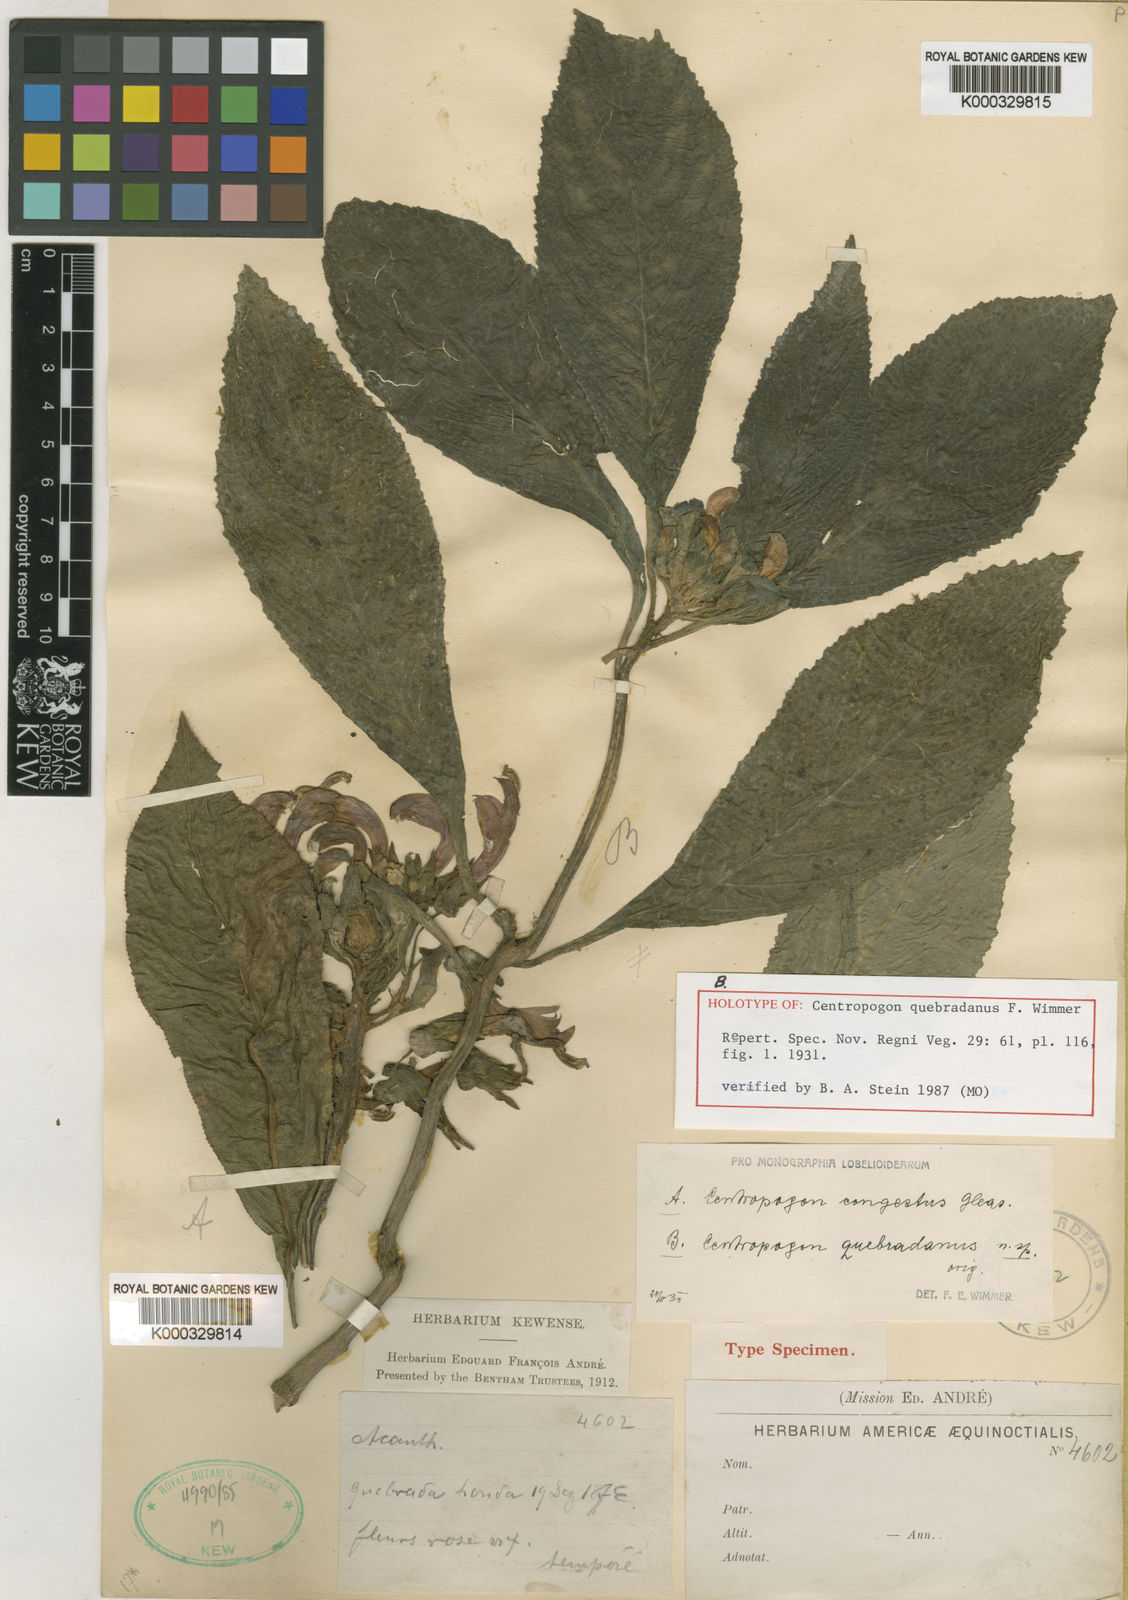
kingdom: Plantae
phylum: Tracheophyta
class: Magnoliopsida
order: Asterales
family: Campanulaceae
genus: Centropogon
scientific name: Centropogon quebradanus
